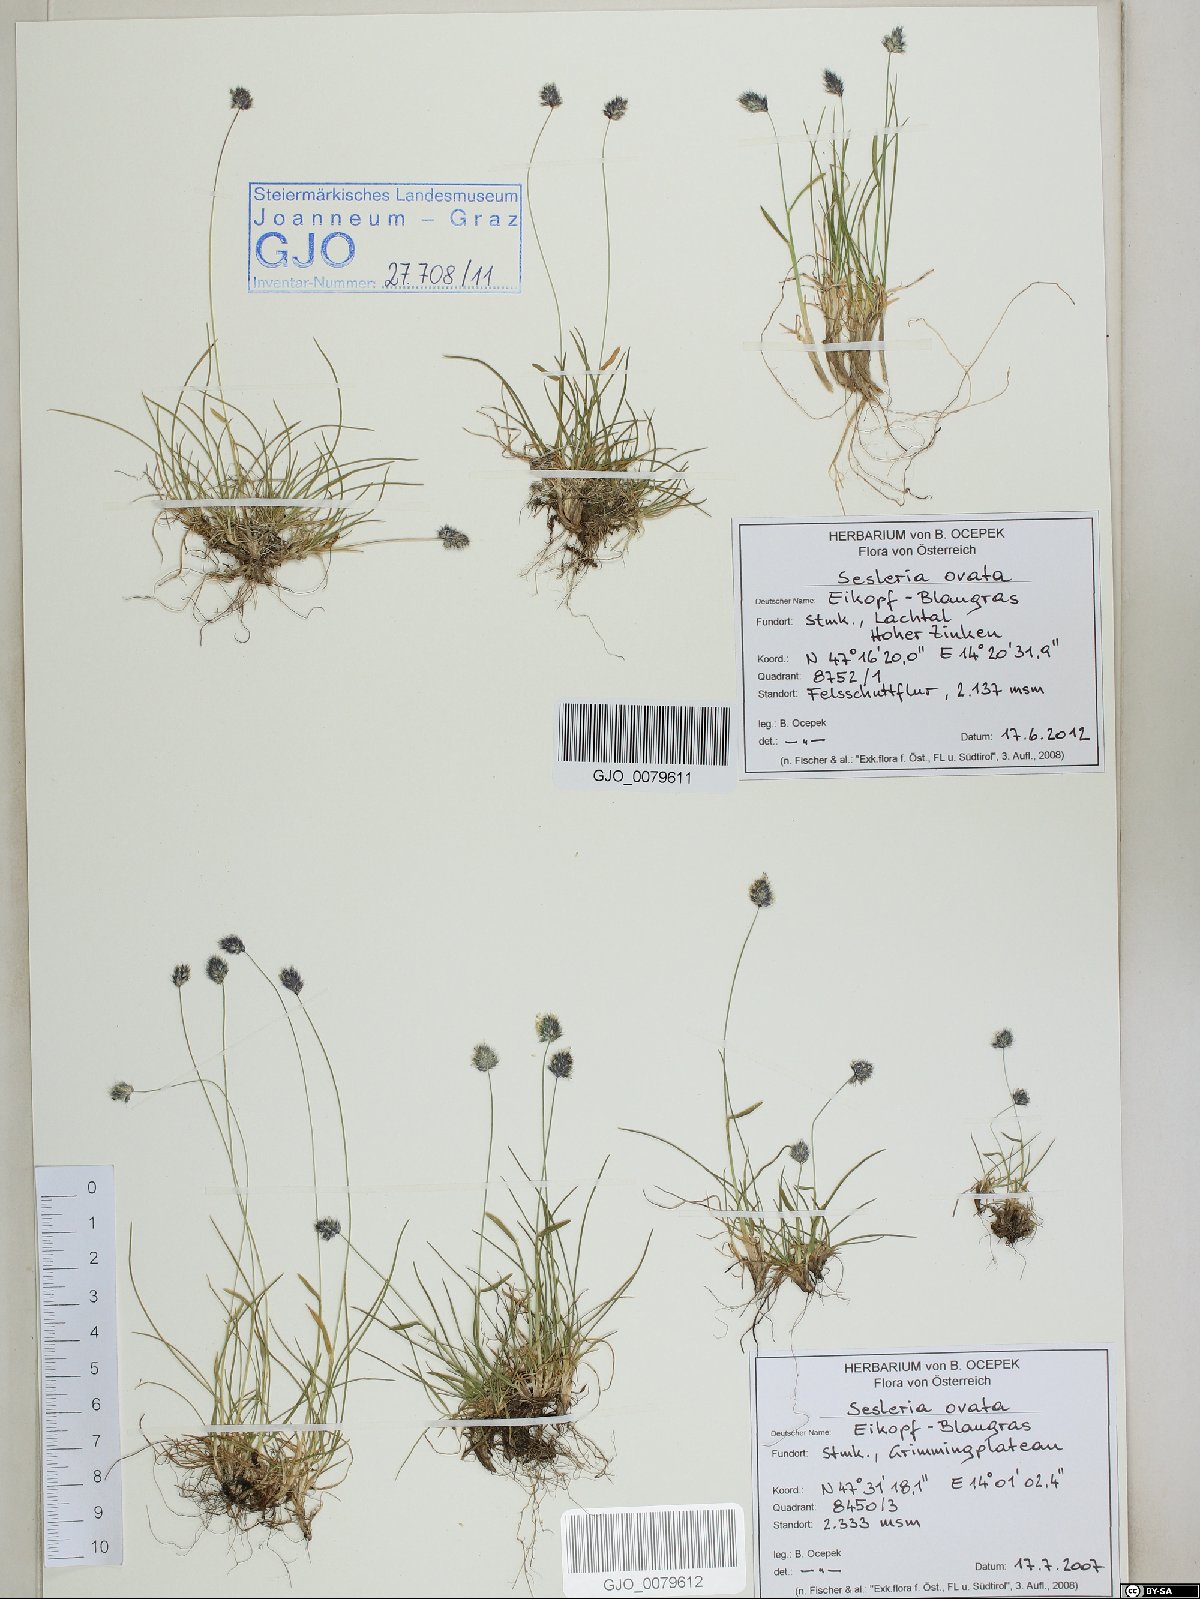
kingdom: Plantae
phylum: Tracheophyta
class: Liliopsida
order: Poales
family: Poaceae
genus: Psilathera
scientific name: Psilathera ovata
